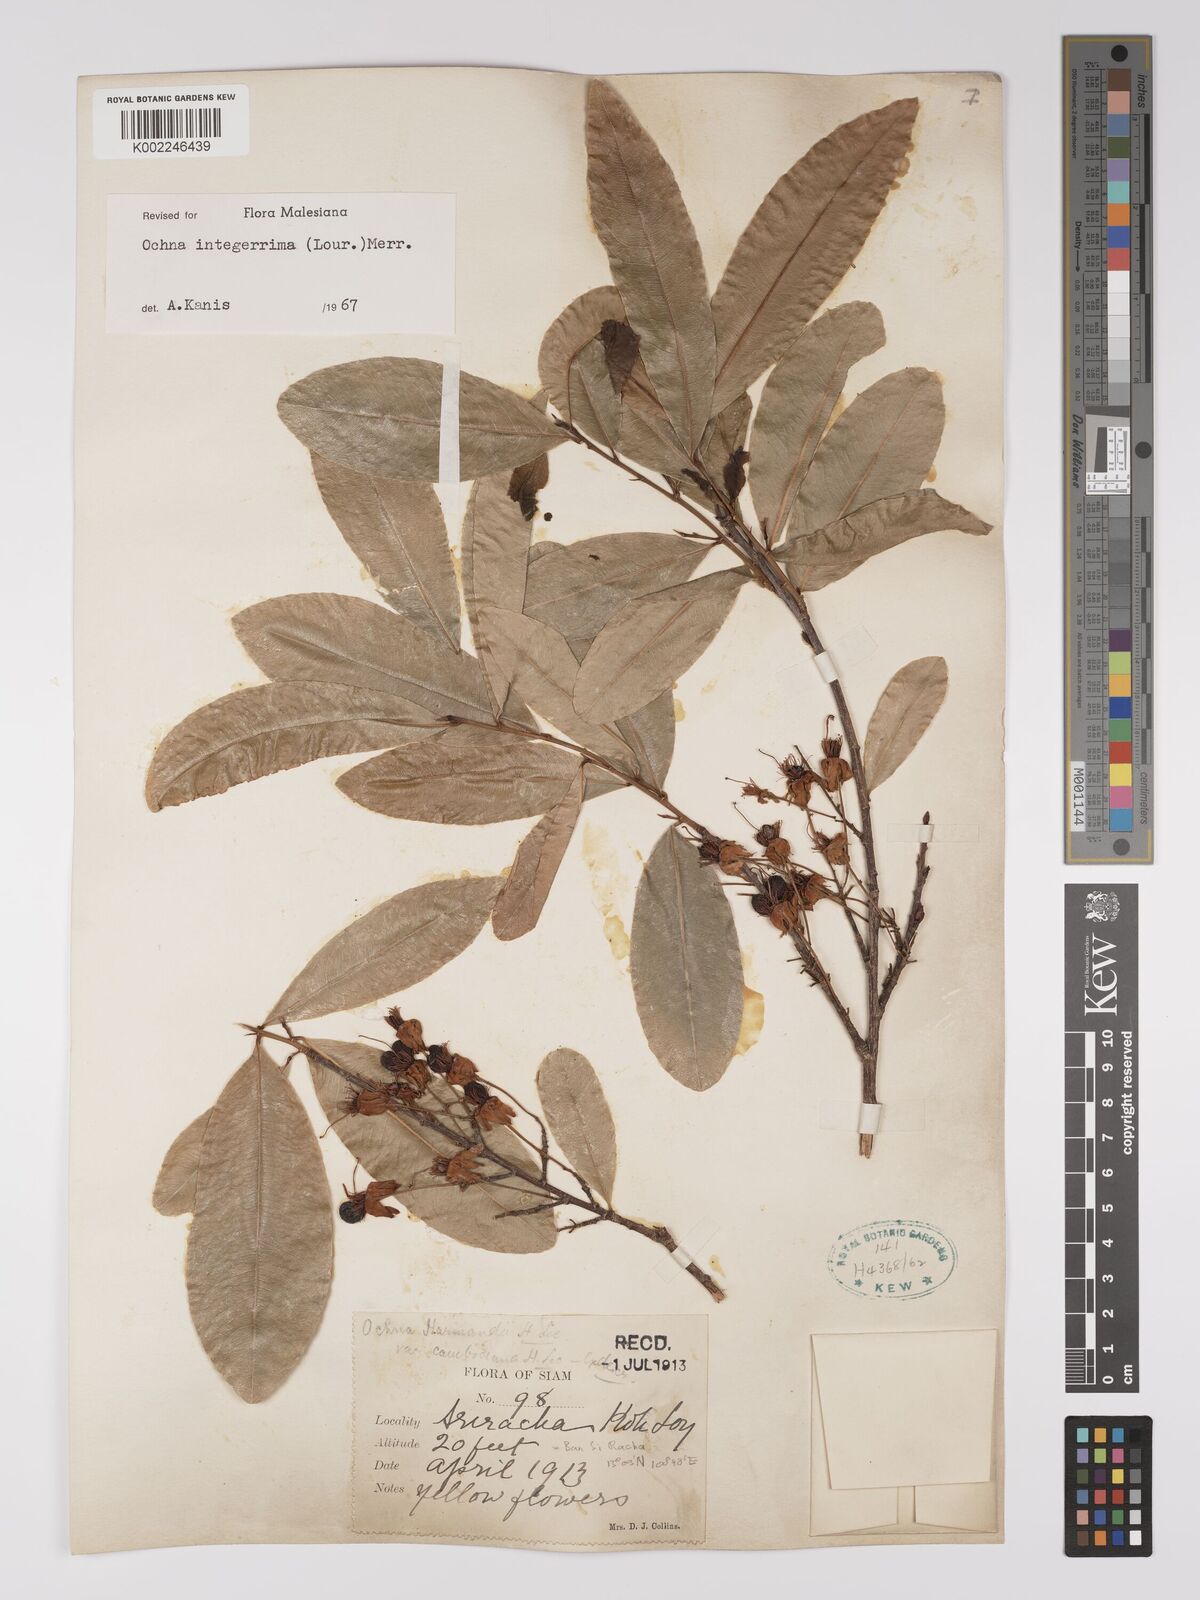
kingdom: Plantae
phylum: Tracheophyta
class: Magnoliopsida
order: Malpighiales
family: Ochnaceae
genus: Ochna
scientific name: Ochna integerrima
